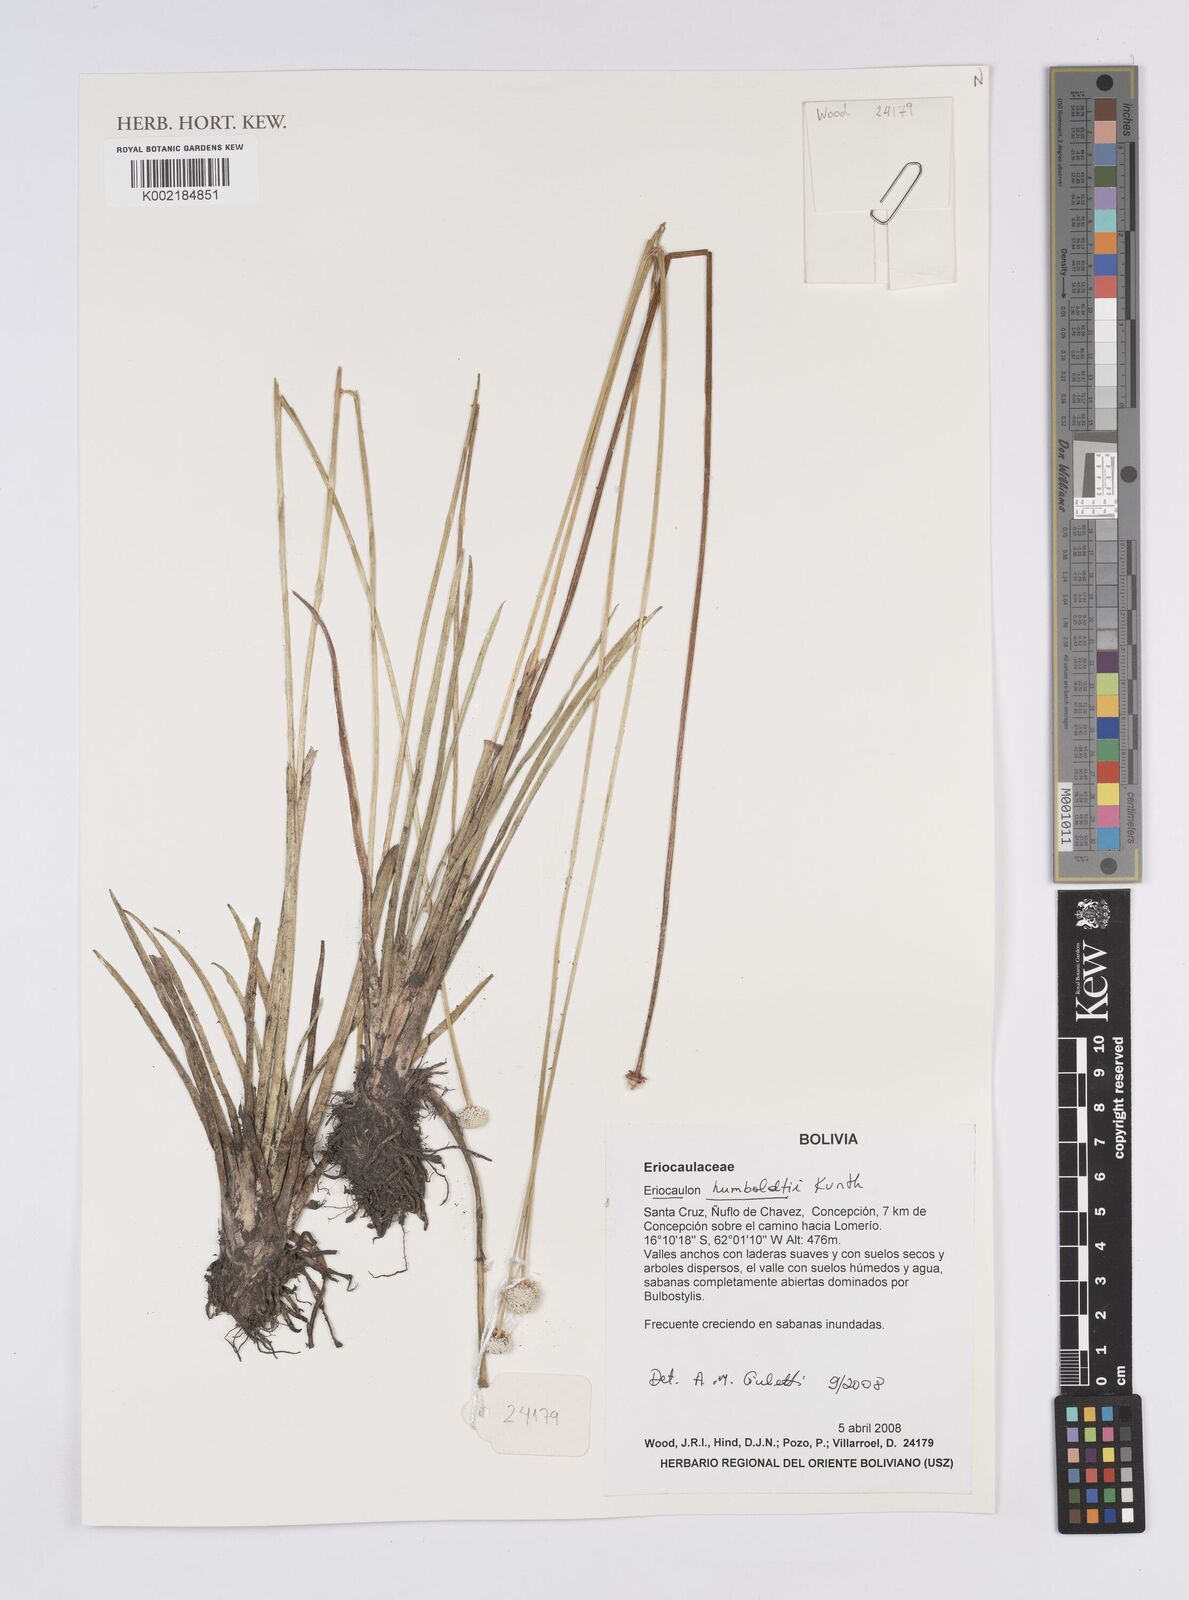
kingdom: Plantae
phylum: Tracheophyta
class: Liliopsida
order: Poales
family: Eriocaulaceae
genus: Eriocaulon
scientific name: Eriocaulon humboldtii
